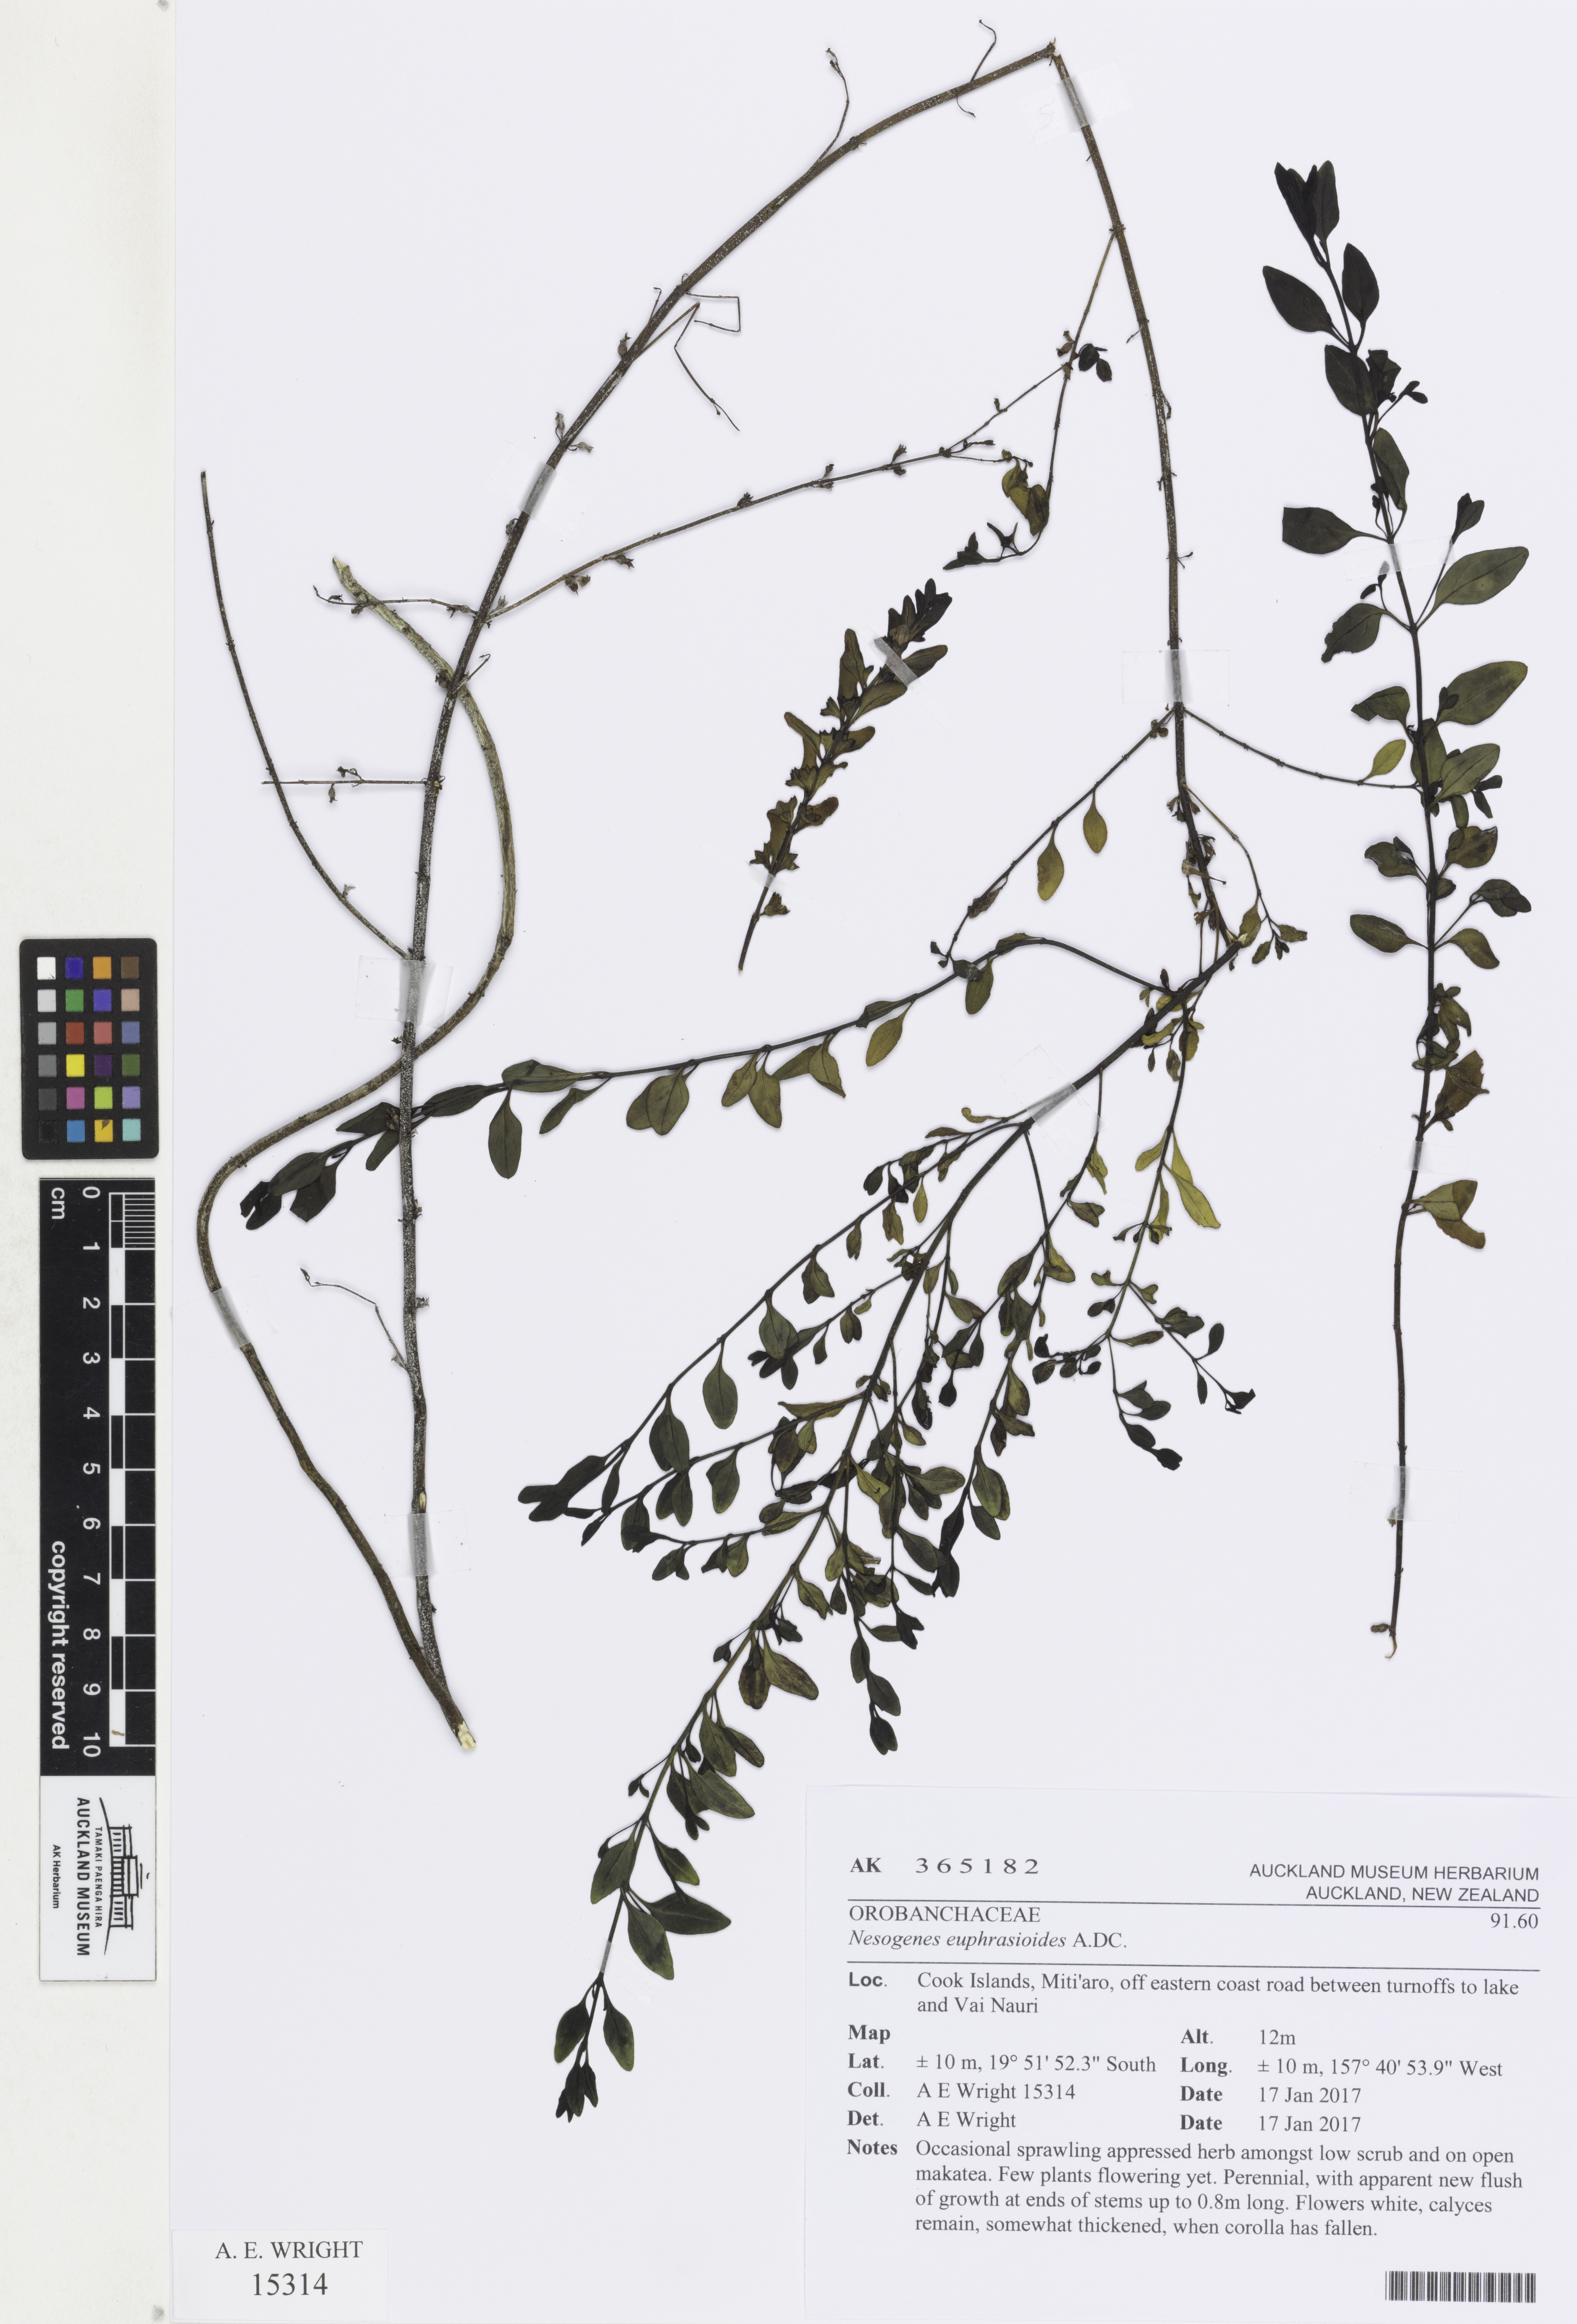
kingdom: Plantae
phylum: Tracheophyta
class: Magnoliopsida
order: Lamiales
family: Orobanchaceae
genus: Nesogenes
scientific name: Nesogenes euphrasioides
